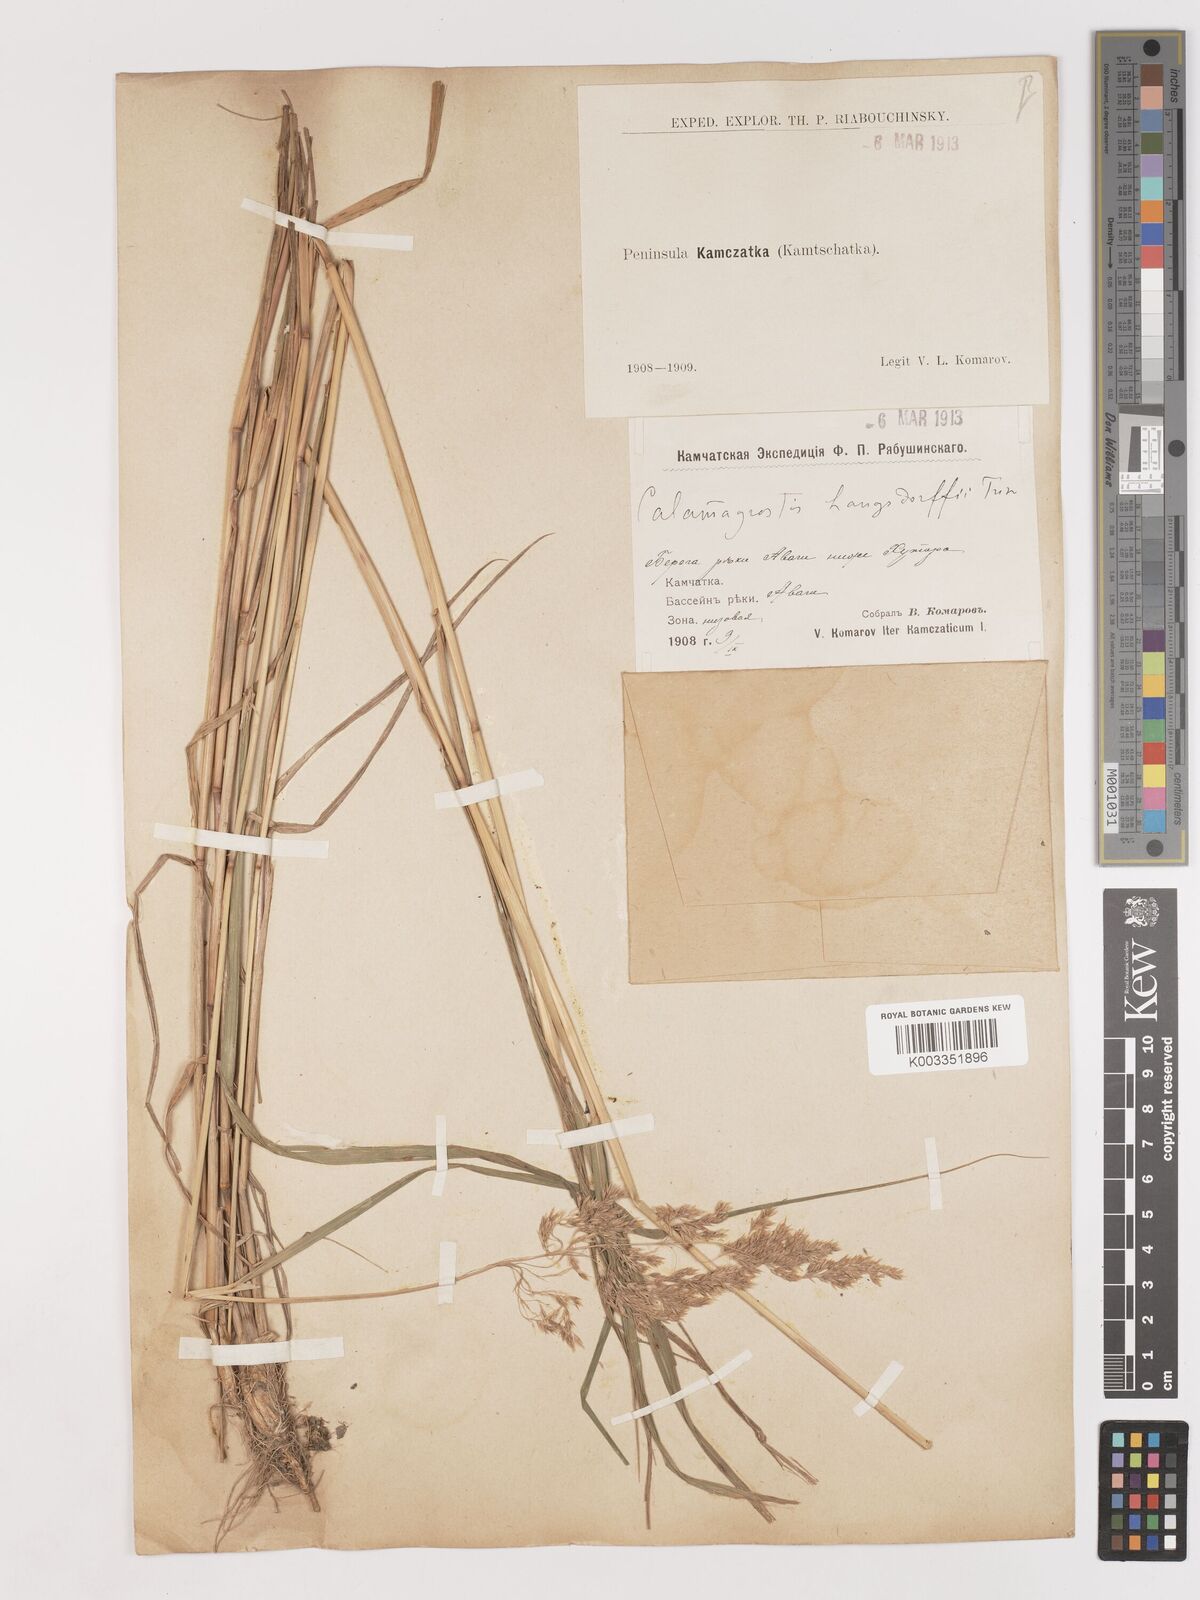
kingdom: Plantae
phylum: Tracheophyta
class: Liliopsida
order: Poales
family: Poaceae
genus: Calamagrostis
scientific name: Calamagrostis purpurea
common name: Scandinavian small-reed
